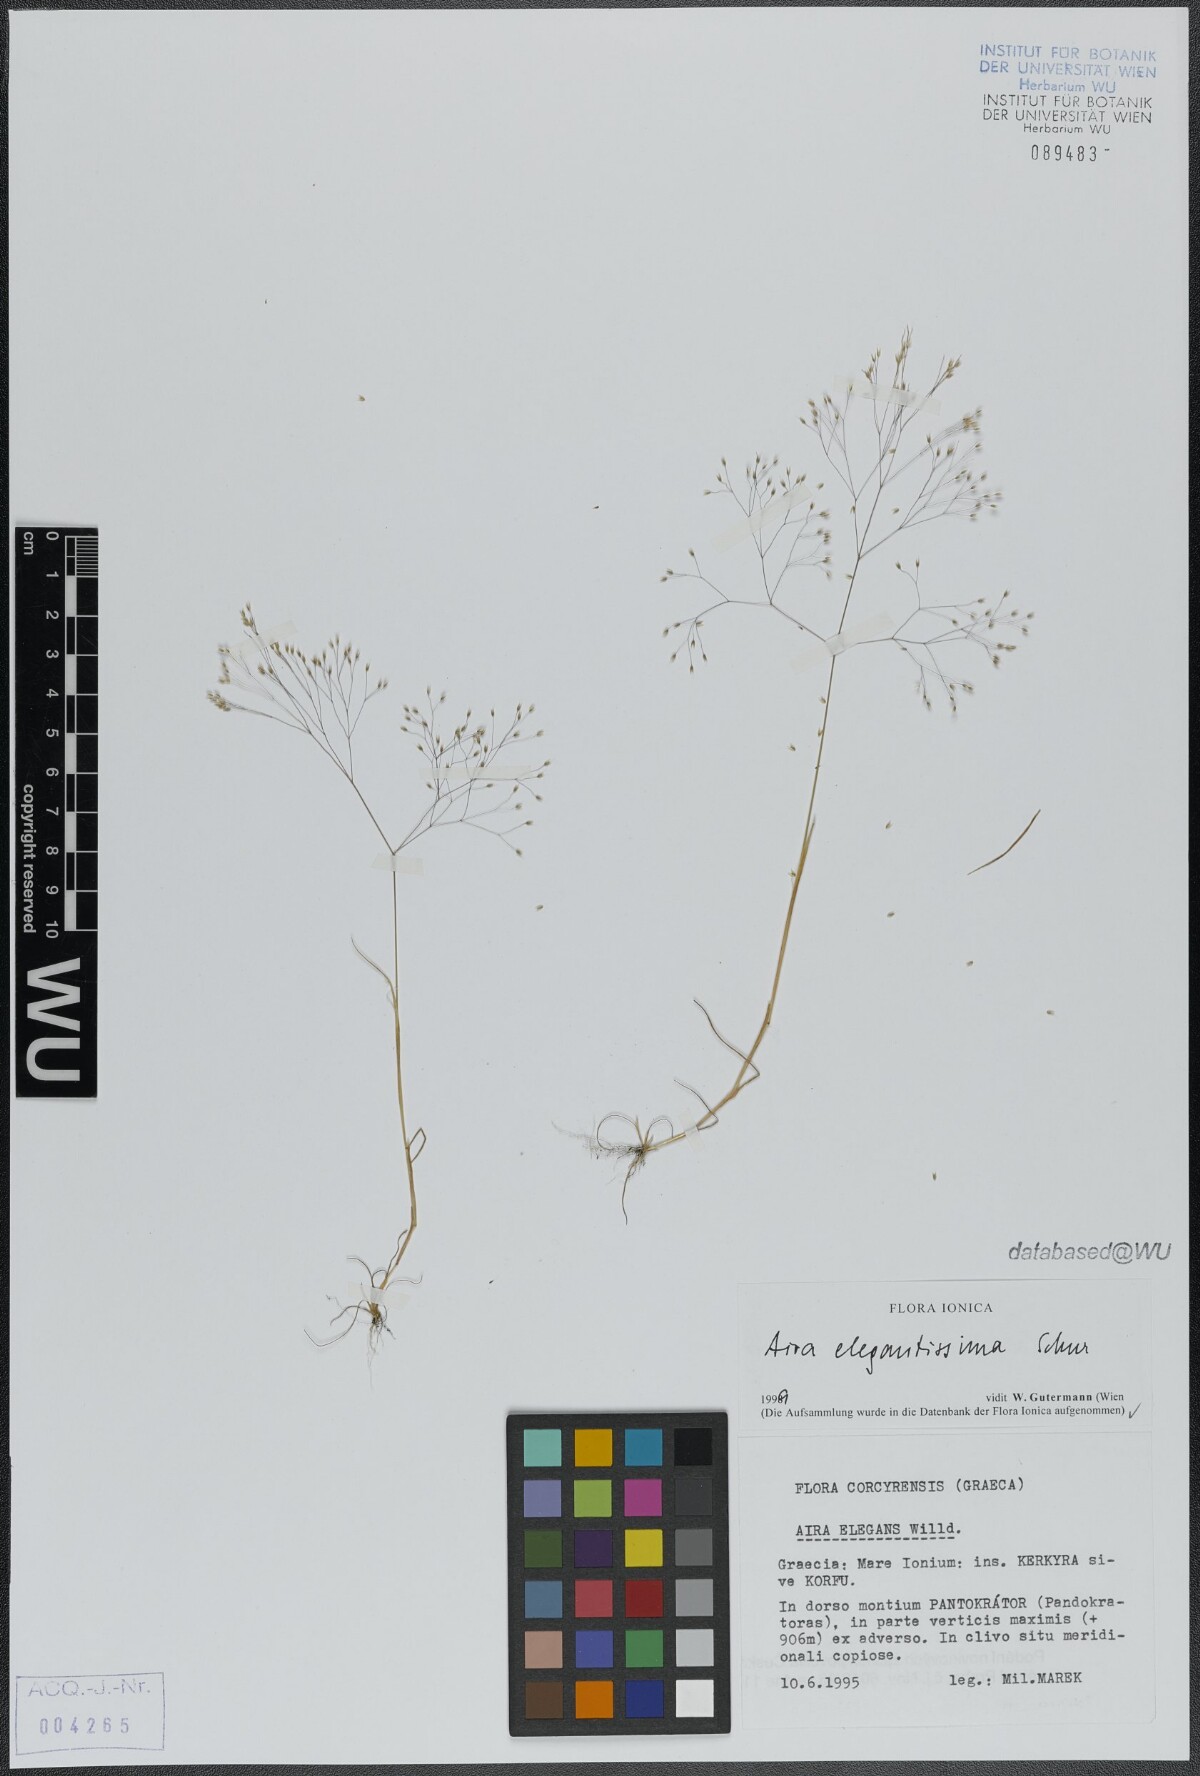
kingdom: Plantae
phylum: Tracheophyta
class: Liliopsida
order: Poales
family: Poaceae
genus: Aira
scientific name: Aira elegans
